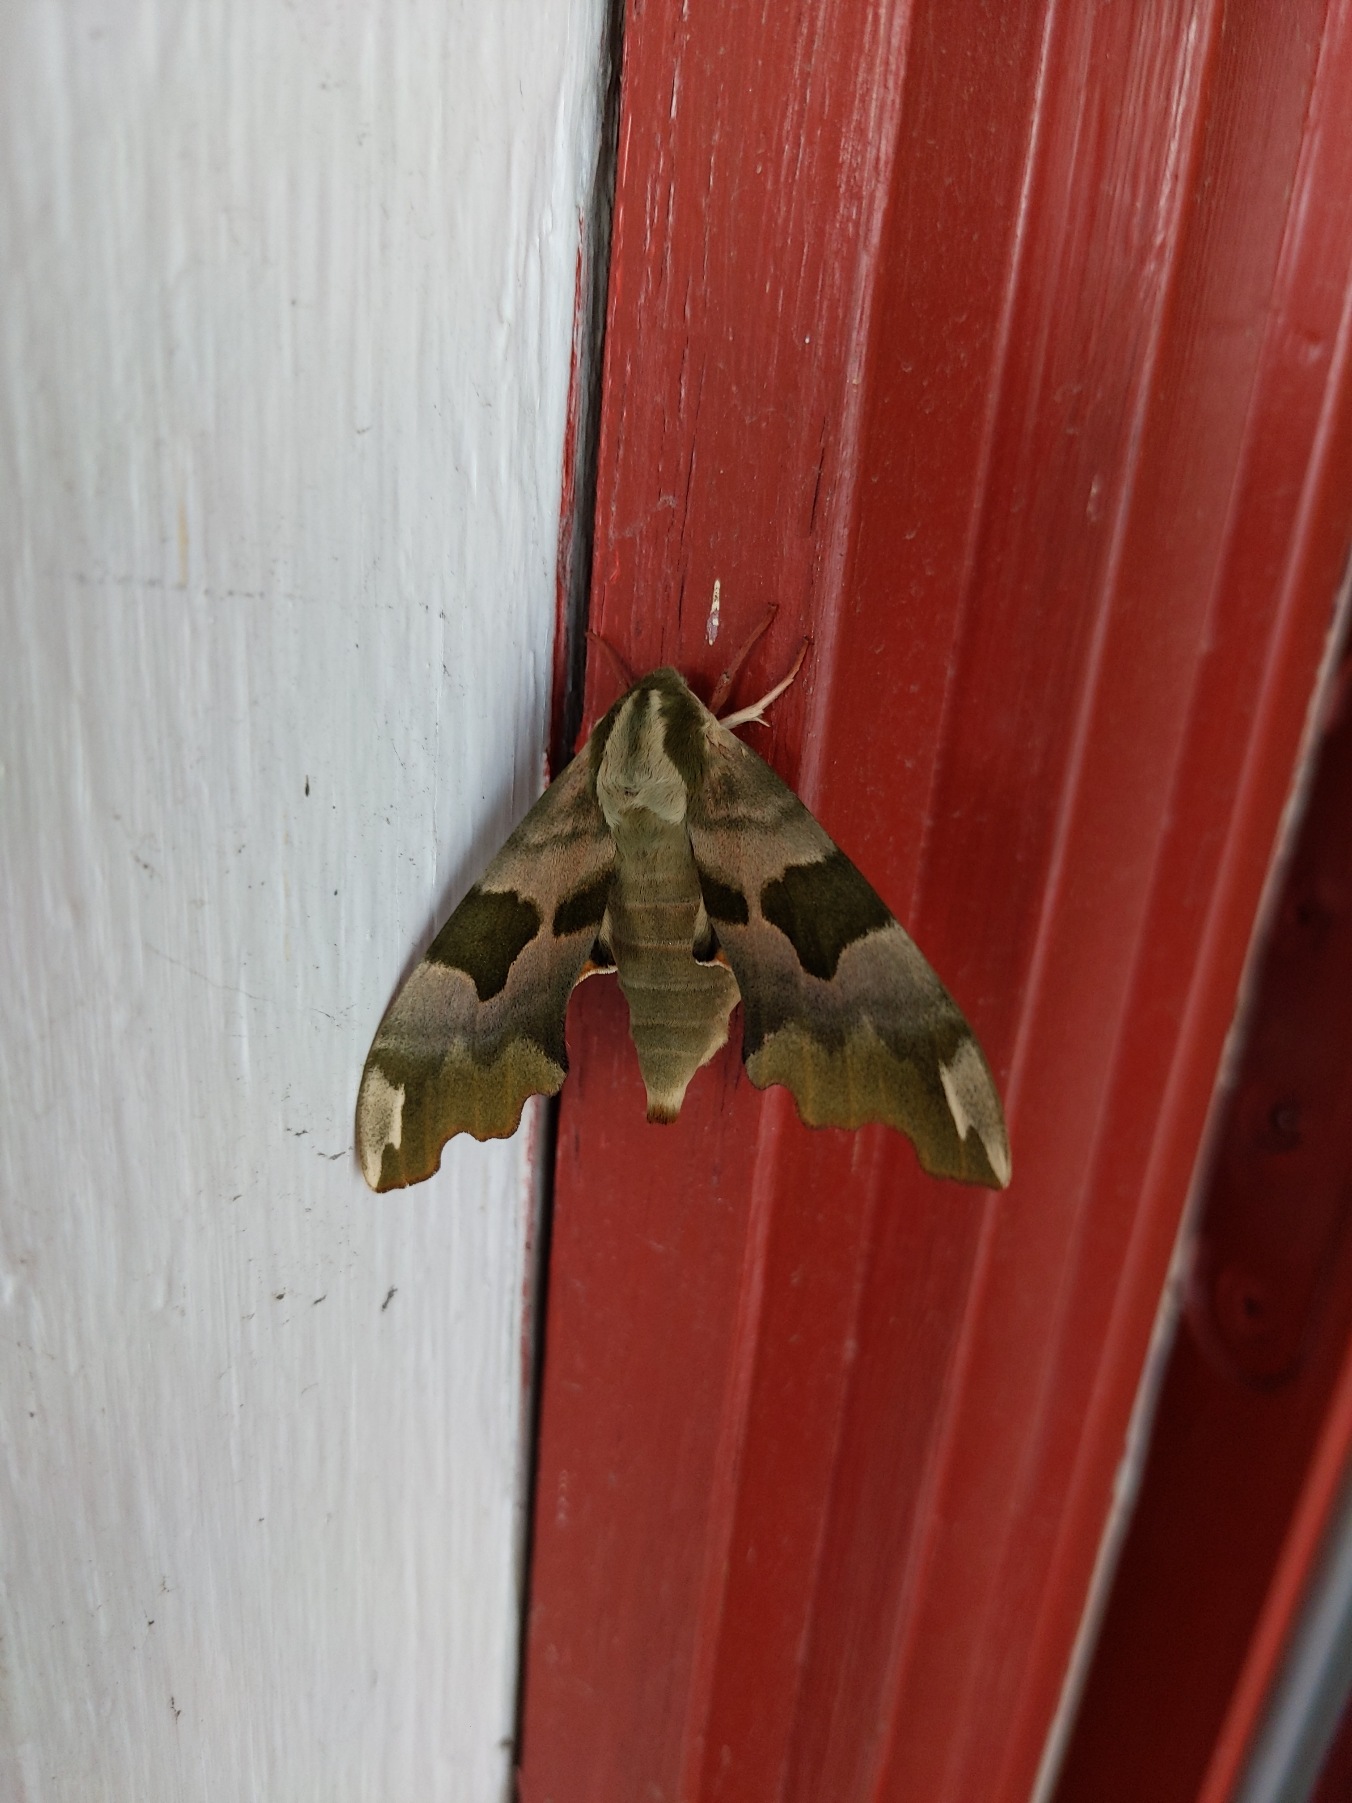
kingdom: Animalia
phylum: Arthropoda
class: Insecta
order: Lepidoptera
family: Sphingidae
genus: Mimas
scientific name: Mimas tiliae
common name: Lindesværmer
